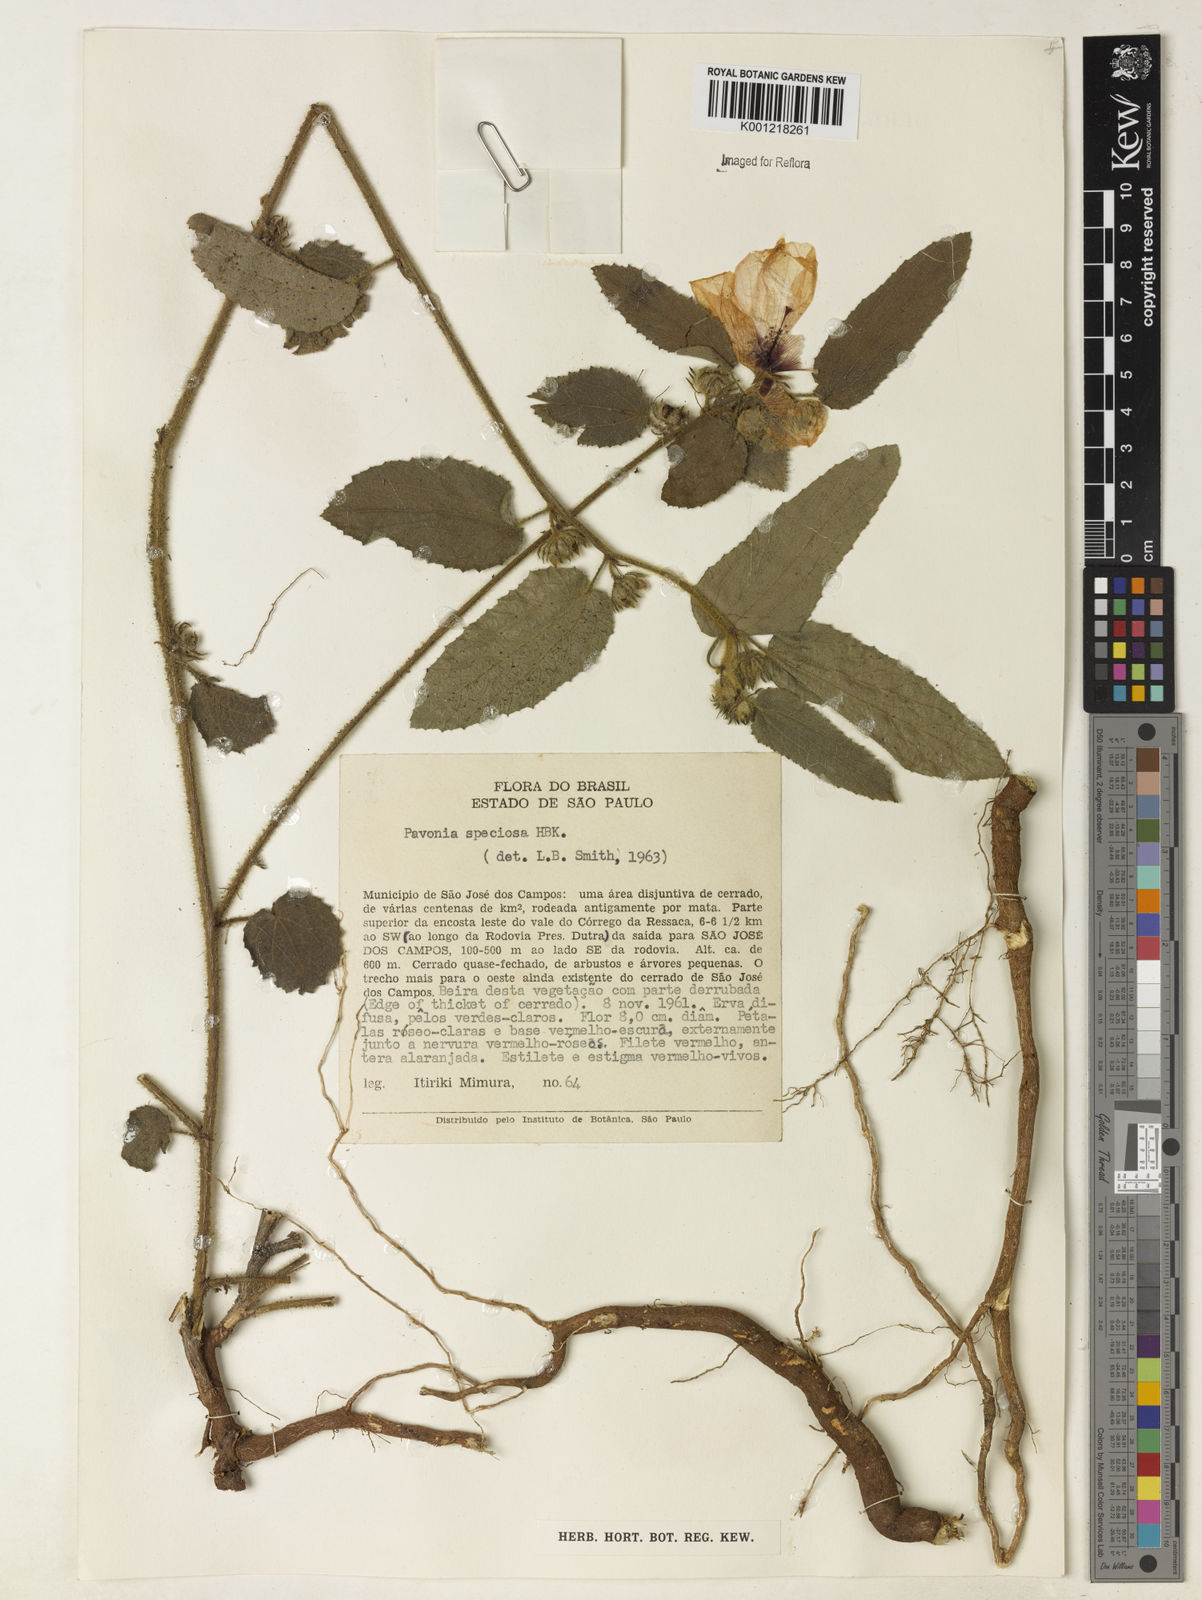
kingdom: Plantae
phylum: Tracheophyta
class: Magnoliopsida
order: Malvales
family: Malvaceae
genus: Peltaea
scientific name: Peltaea speciosa
